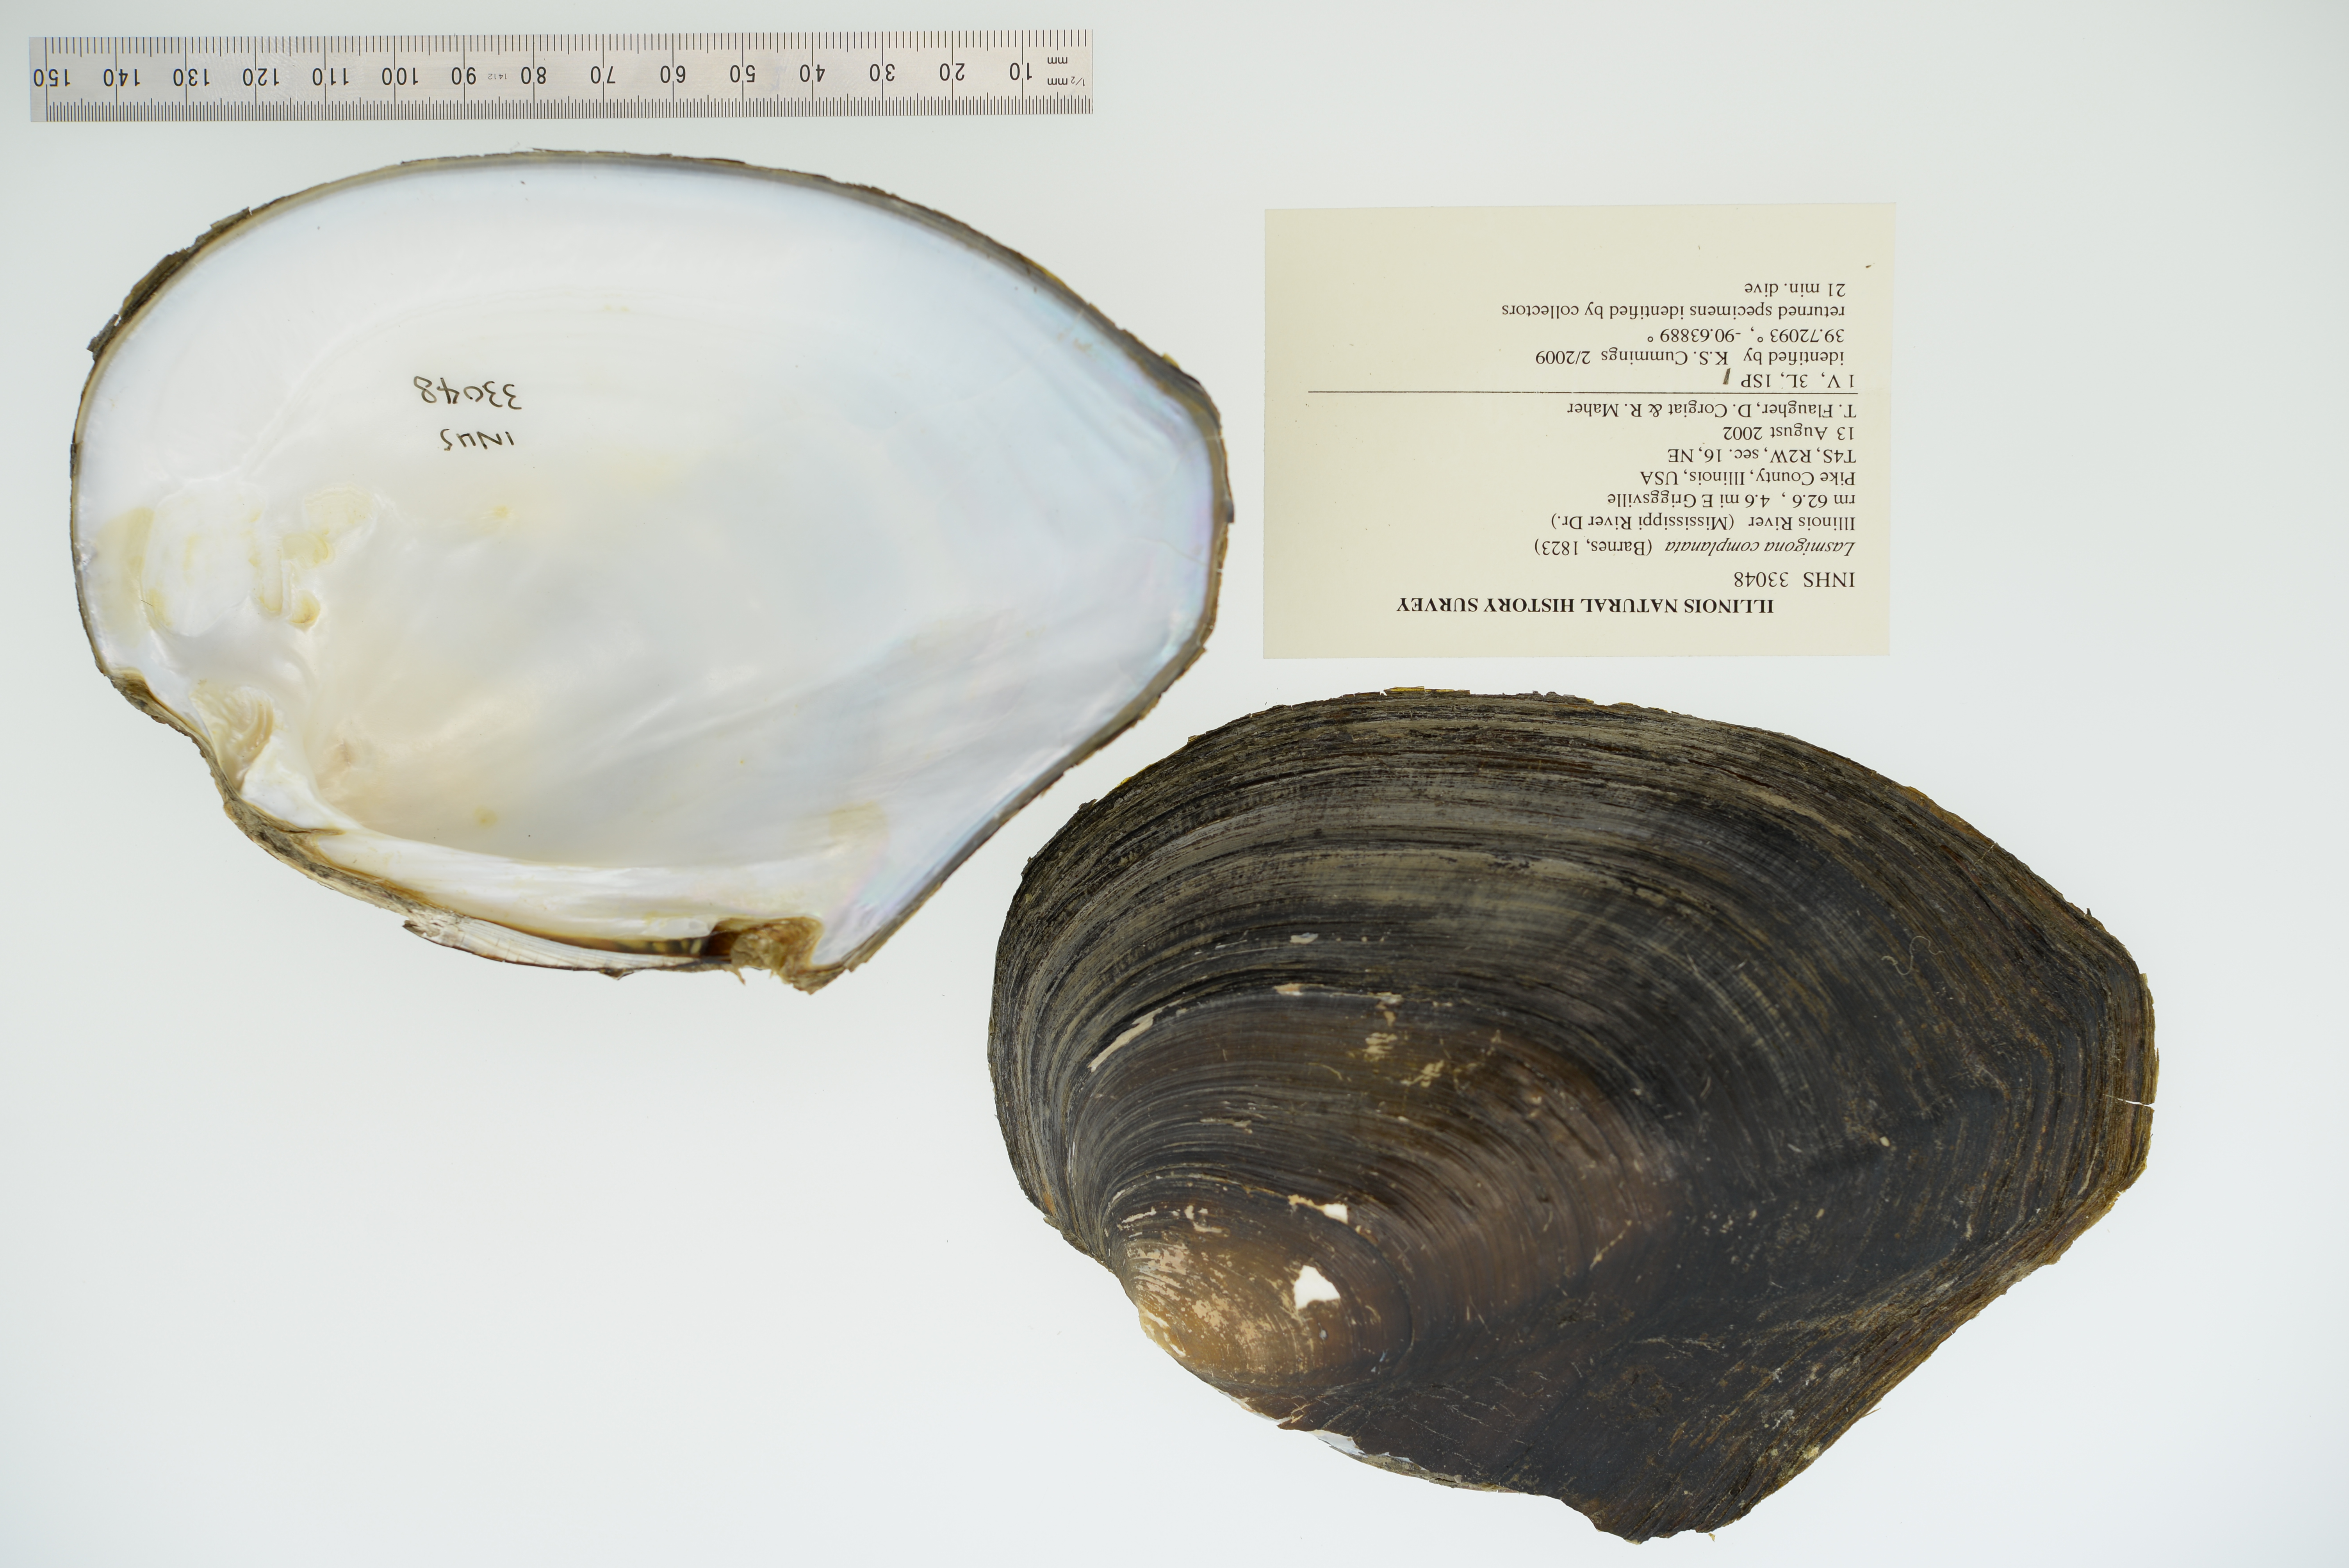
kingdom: Animalia
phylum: Mollusca
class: Bivalvia
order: Unionida
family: Unionidae
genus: Lasmigona
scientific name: Lasmigona complanata
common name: White heelsplitter
